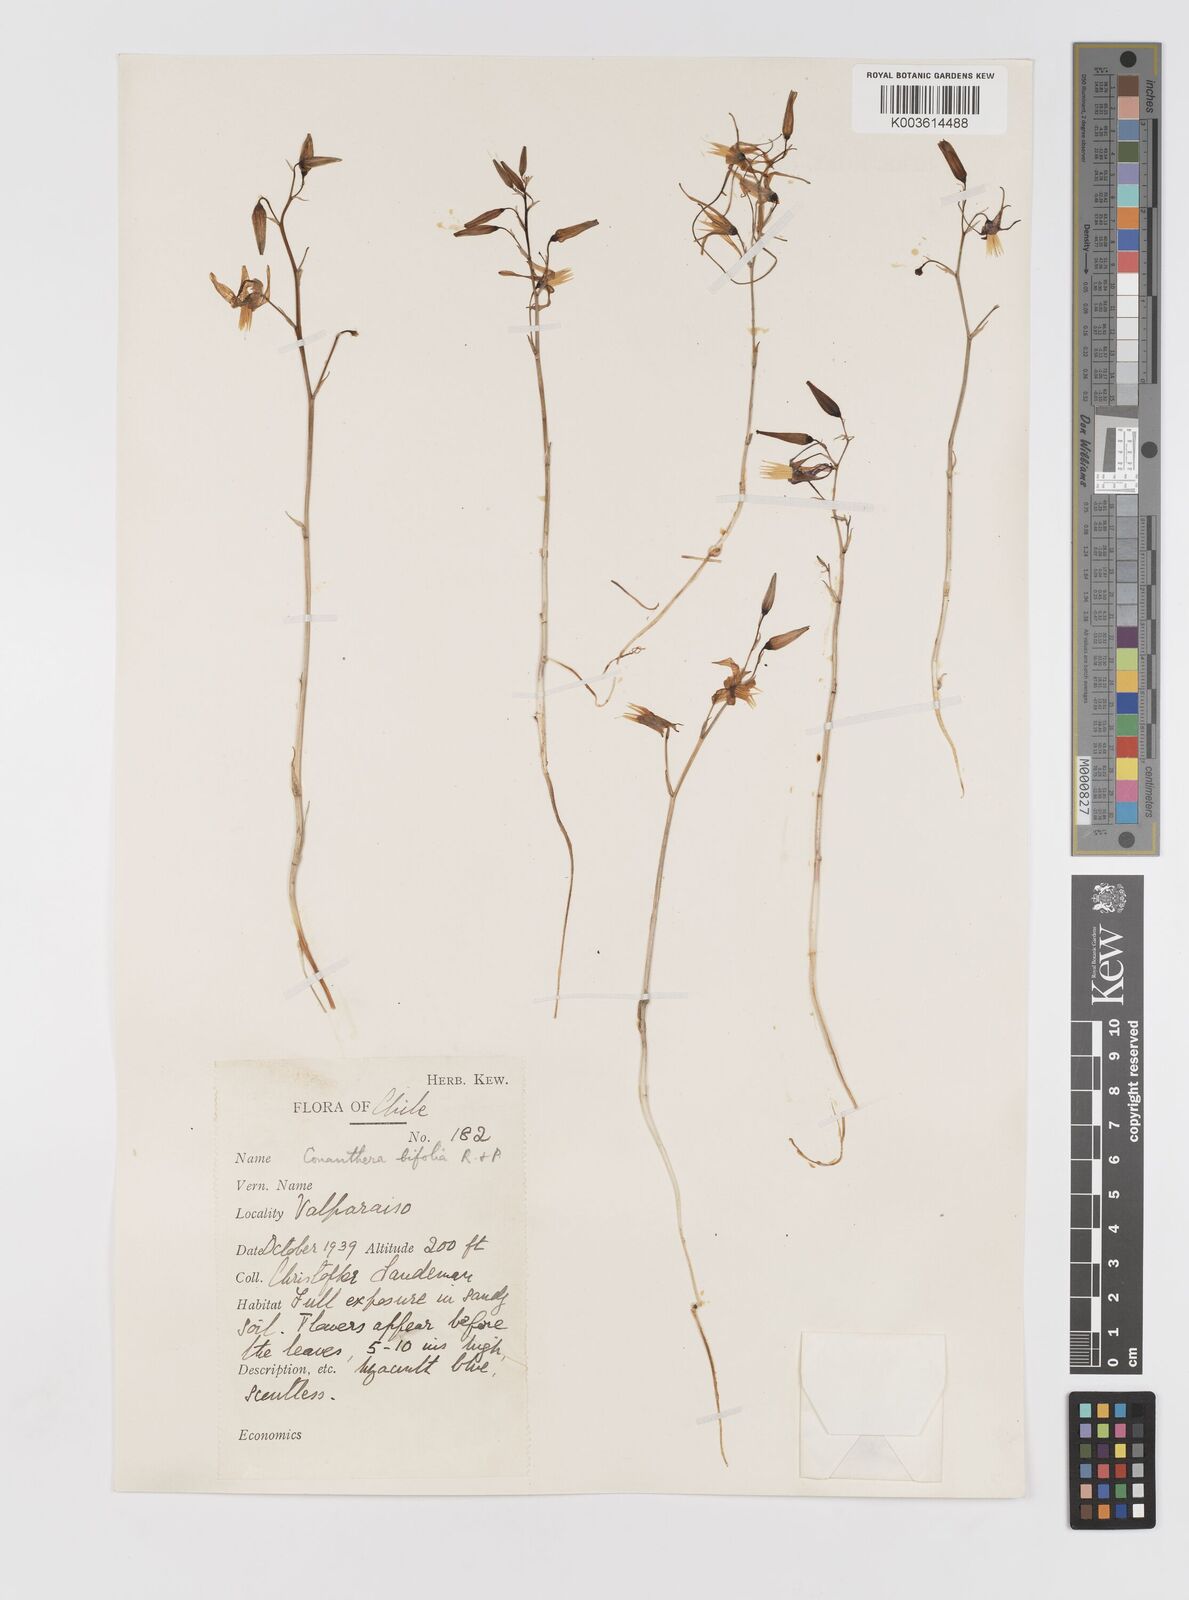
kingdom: Plantae
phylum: Tracheophyta
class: Liliopsida
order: Asparagales
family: Tecophilaeaceae
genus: Conanthera
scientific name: Conanthera bifolia
